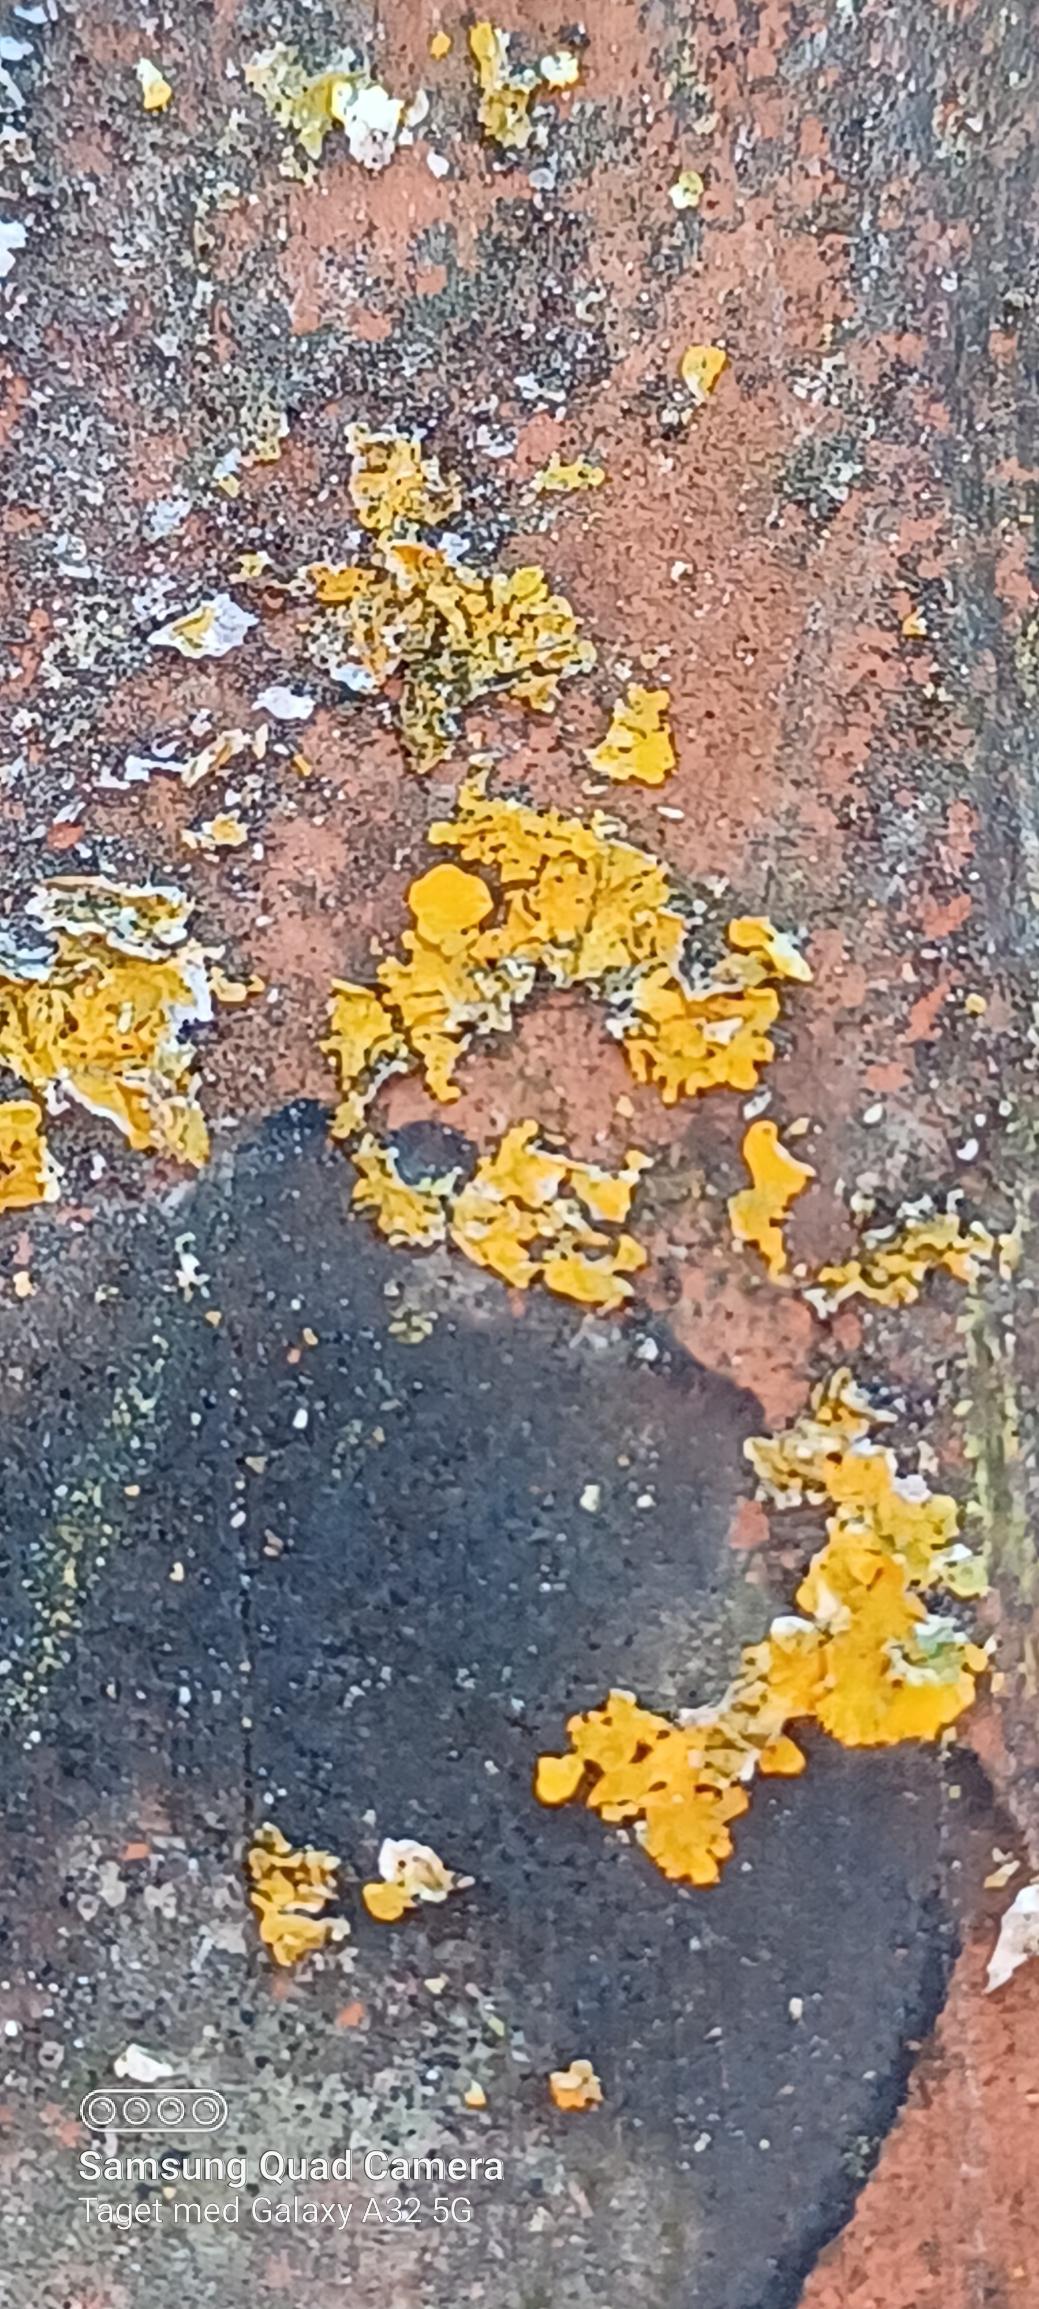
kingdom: Fungi
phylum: Ascomycota
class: Lecanoromycetes
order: Teloschistales
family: Teloschistaceae
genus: Xanthoria
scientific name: Xanthoria parietina
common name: Almindelig væggelav
